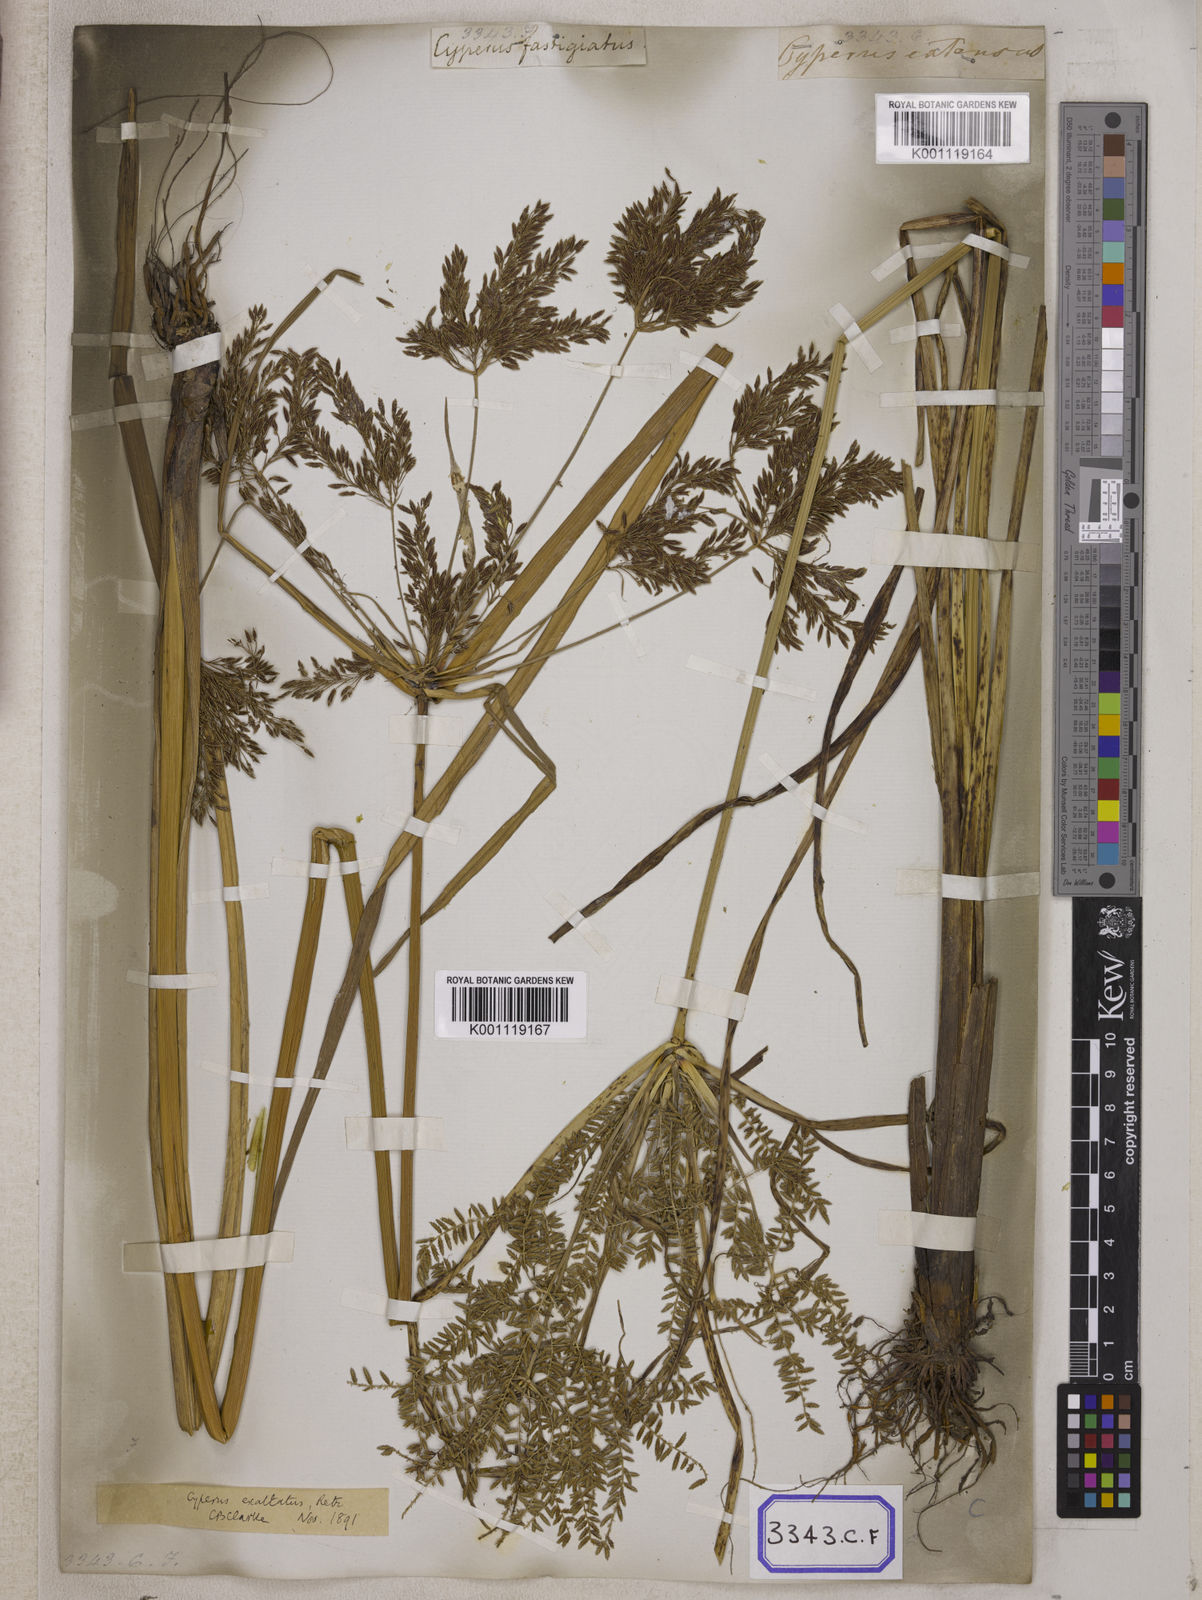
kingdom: Plantae
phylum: Tracheophyta
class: Liliopsida
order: Poales
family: Cyperaceae
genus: Cyperus
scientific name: Cyperus
